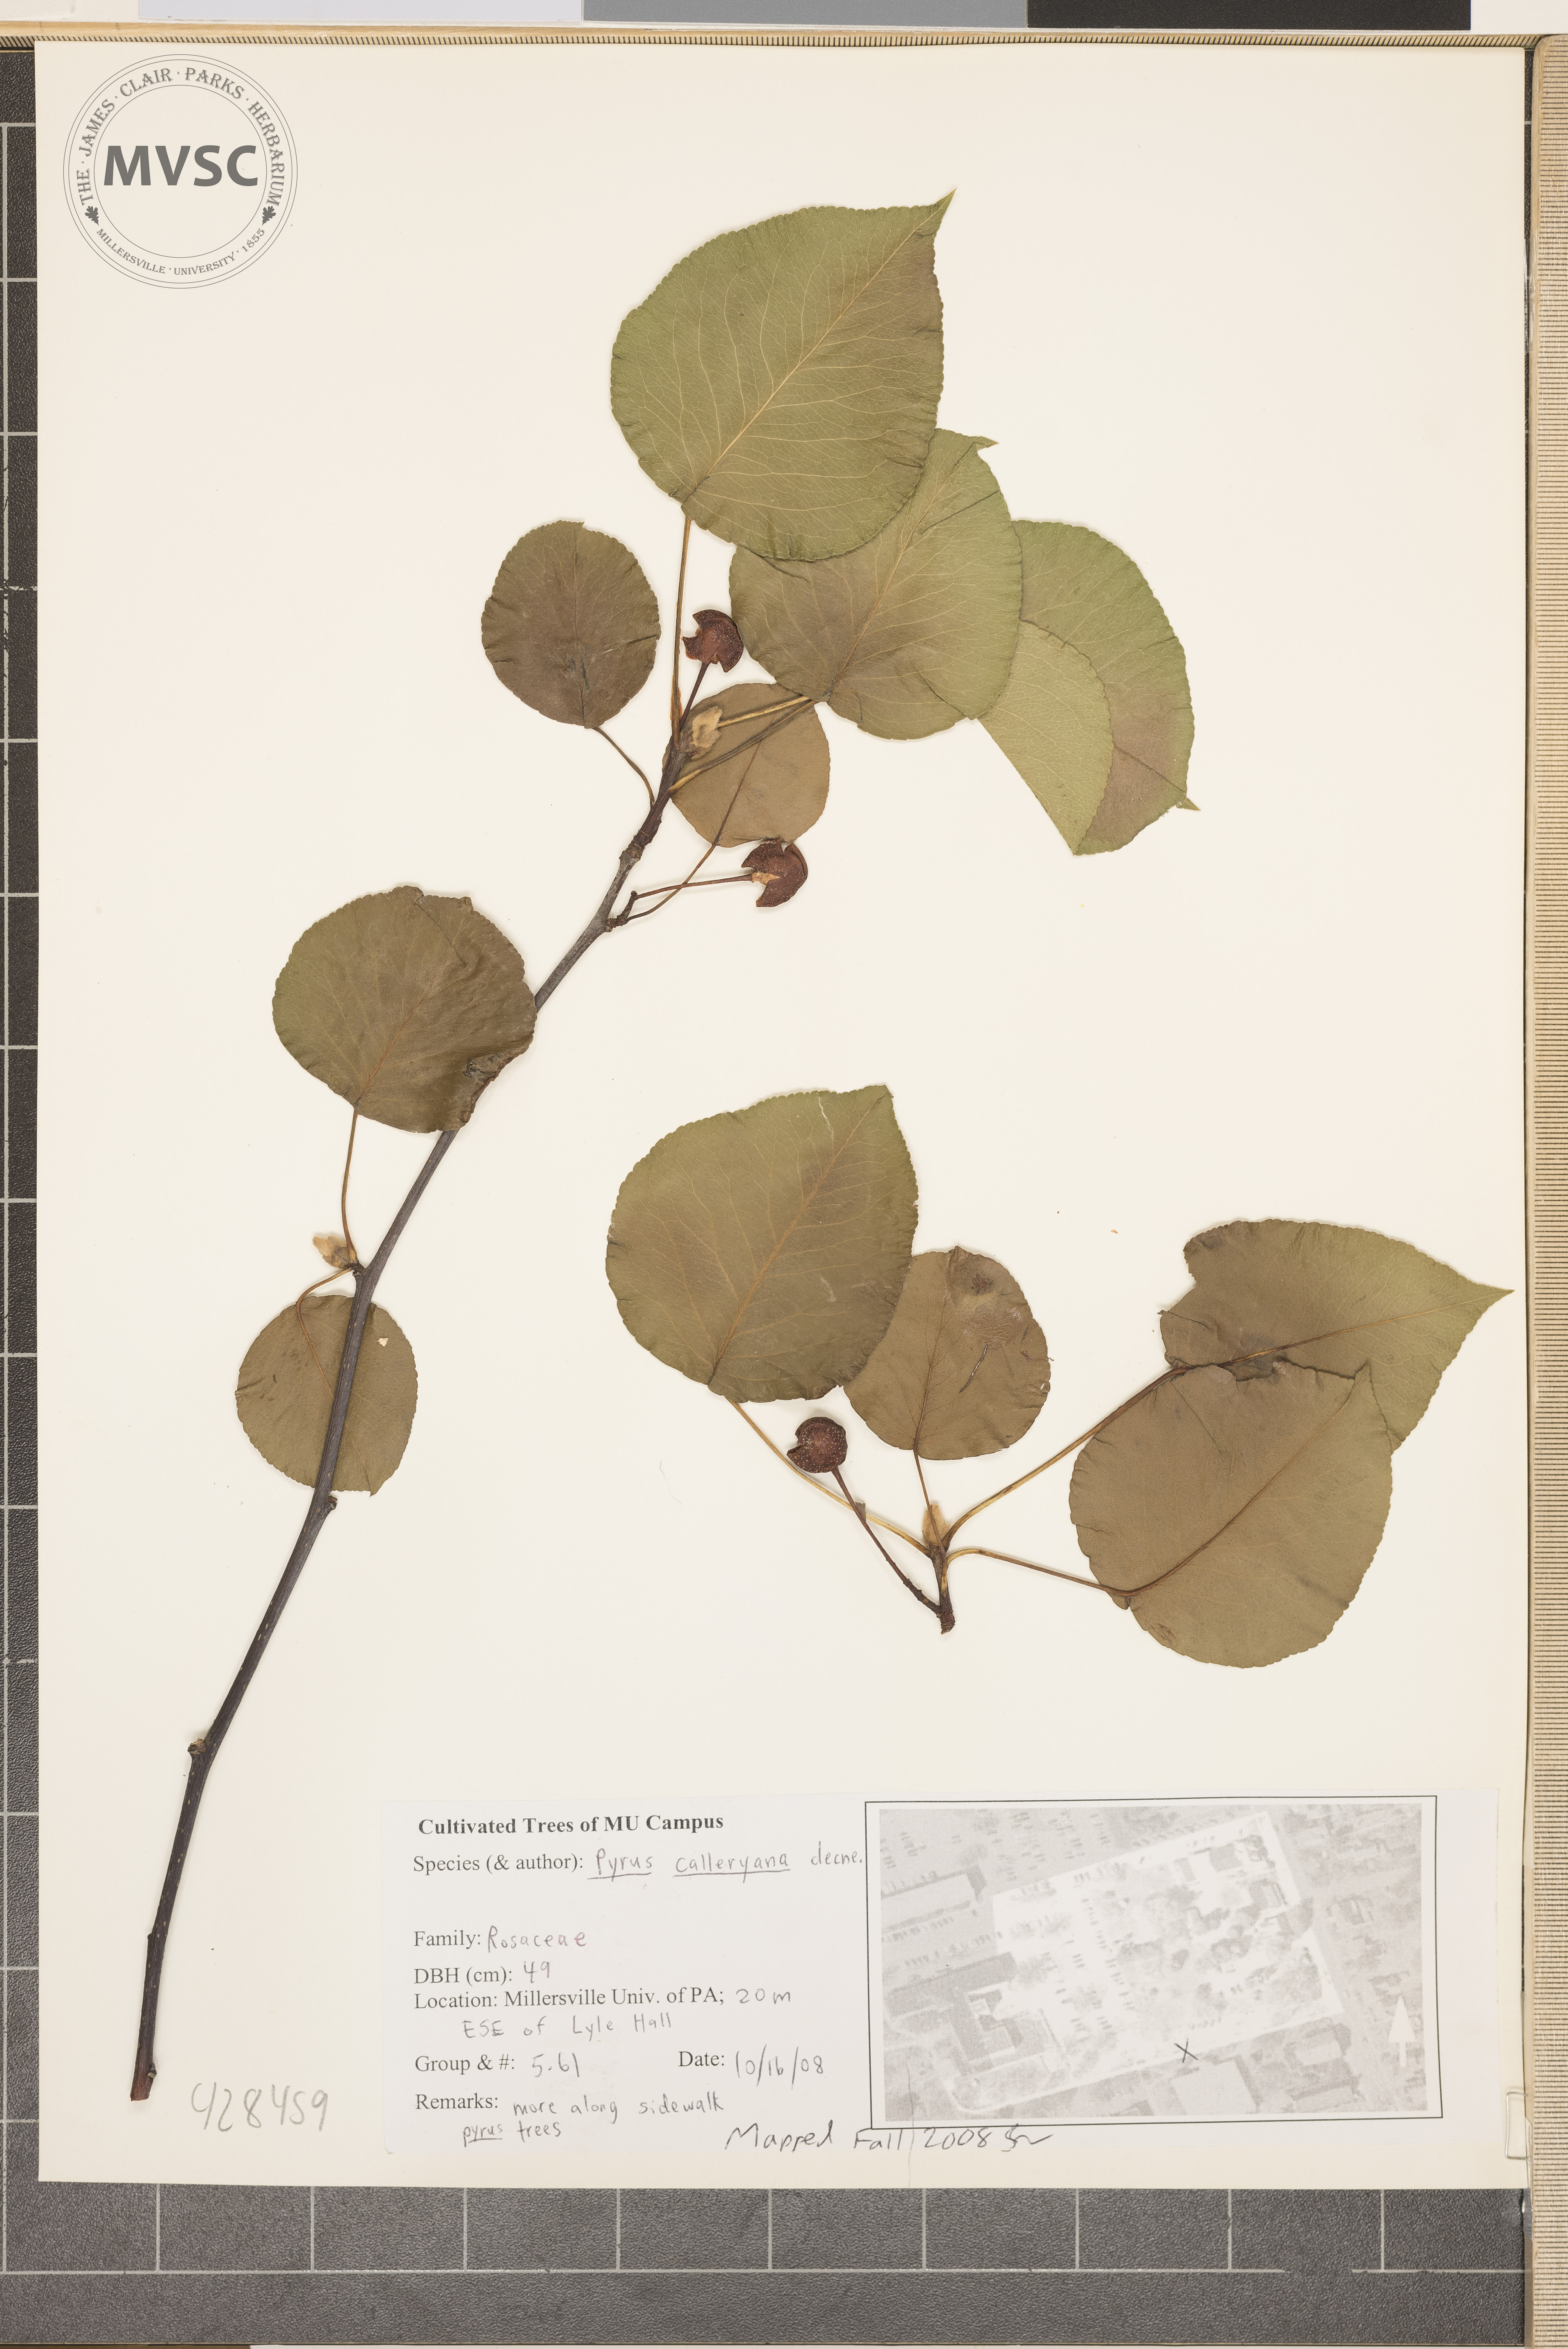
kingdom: Plantae
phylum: Tracheophyta
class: Magnoliopsida
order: Rosales
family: Rosaceae
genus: Pyrus
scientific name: Pyrus calleryana
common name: Bradford Pear
